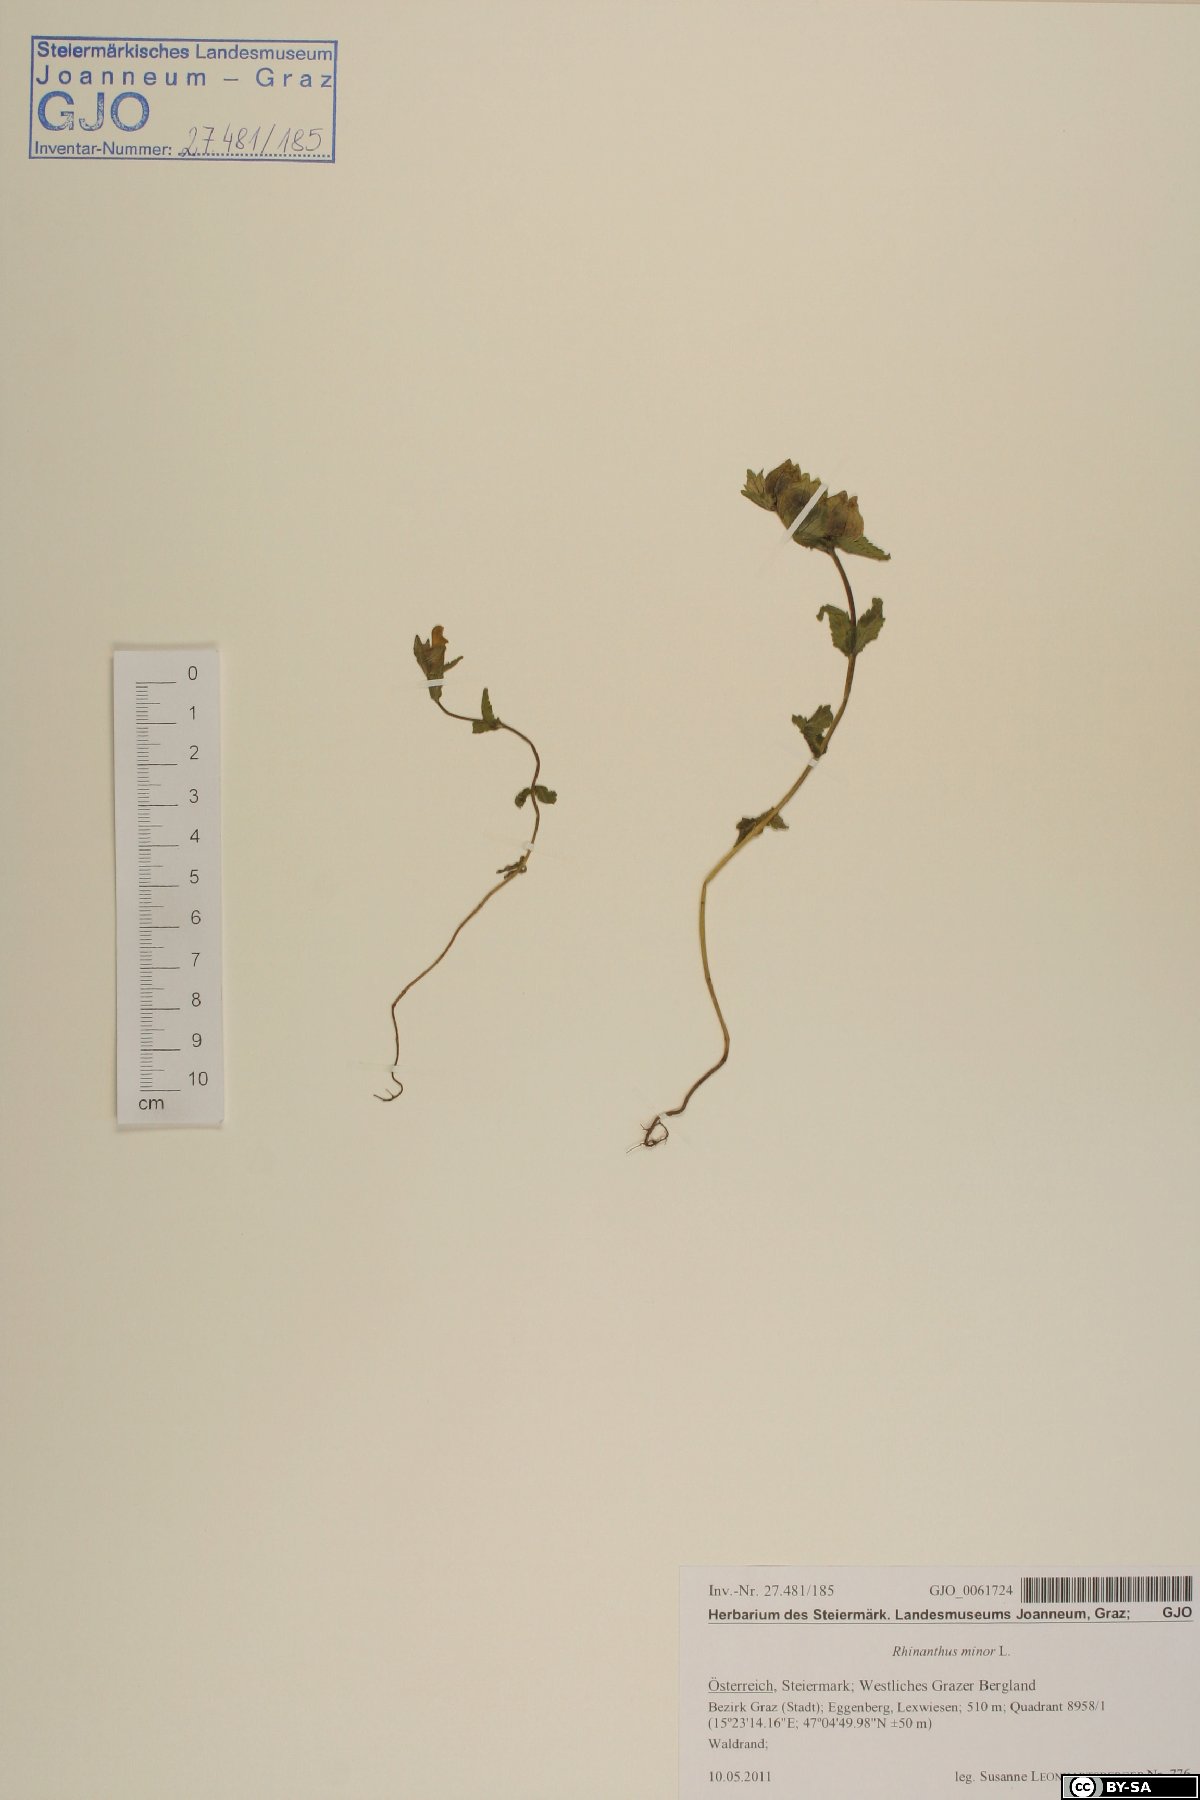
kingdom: Plantae
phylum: Tracheophyta
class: Magnoliopsida
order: Lamiales
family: Orobanchaceae
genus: Rhinanthus
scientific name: Rhinanthus minor
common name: Yellow-rattle
